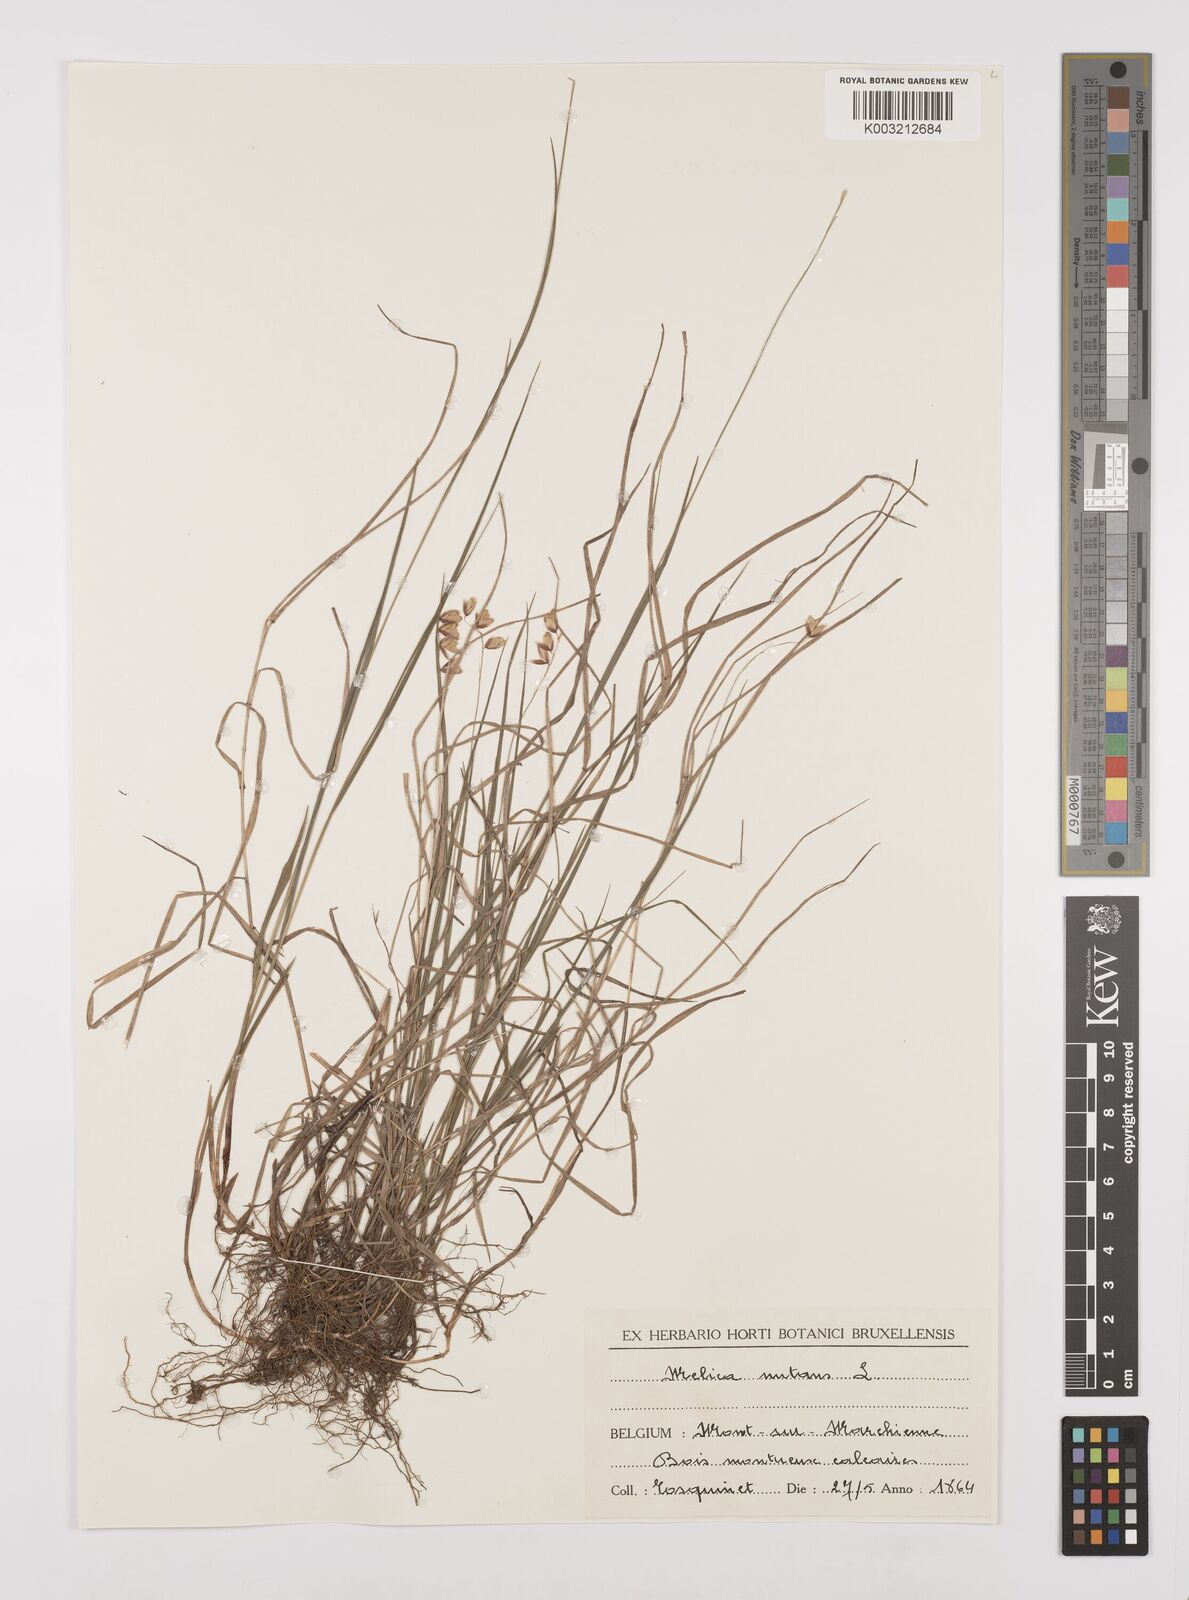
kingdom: Plantae
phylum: Tracheophyta
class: Liliopsida
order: Poales
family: Poaceae
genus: Melica
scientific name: Melica nutans
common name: Mountain melick
